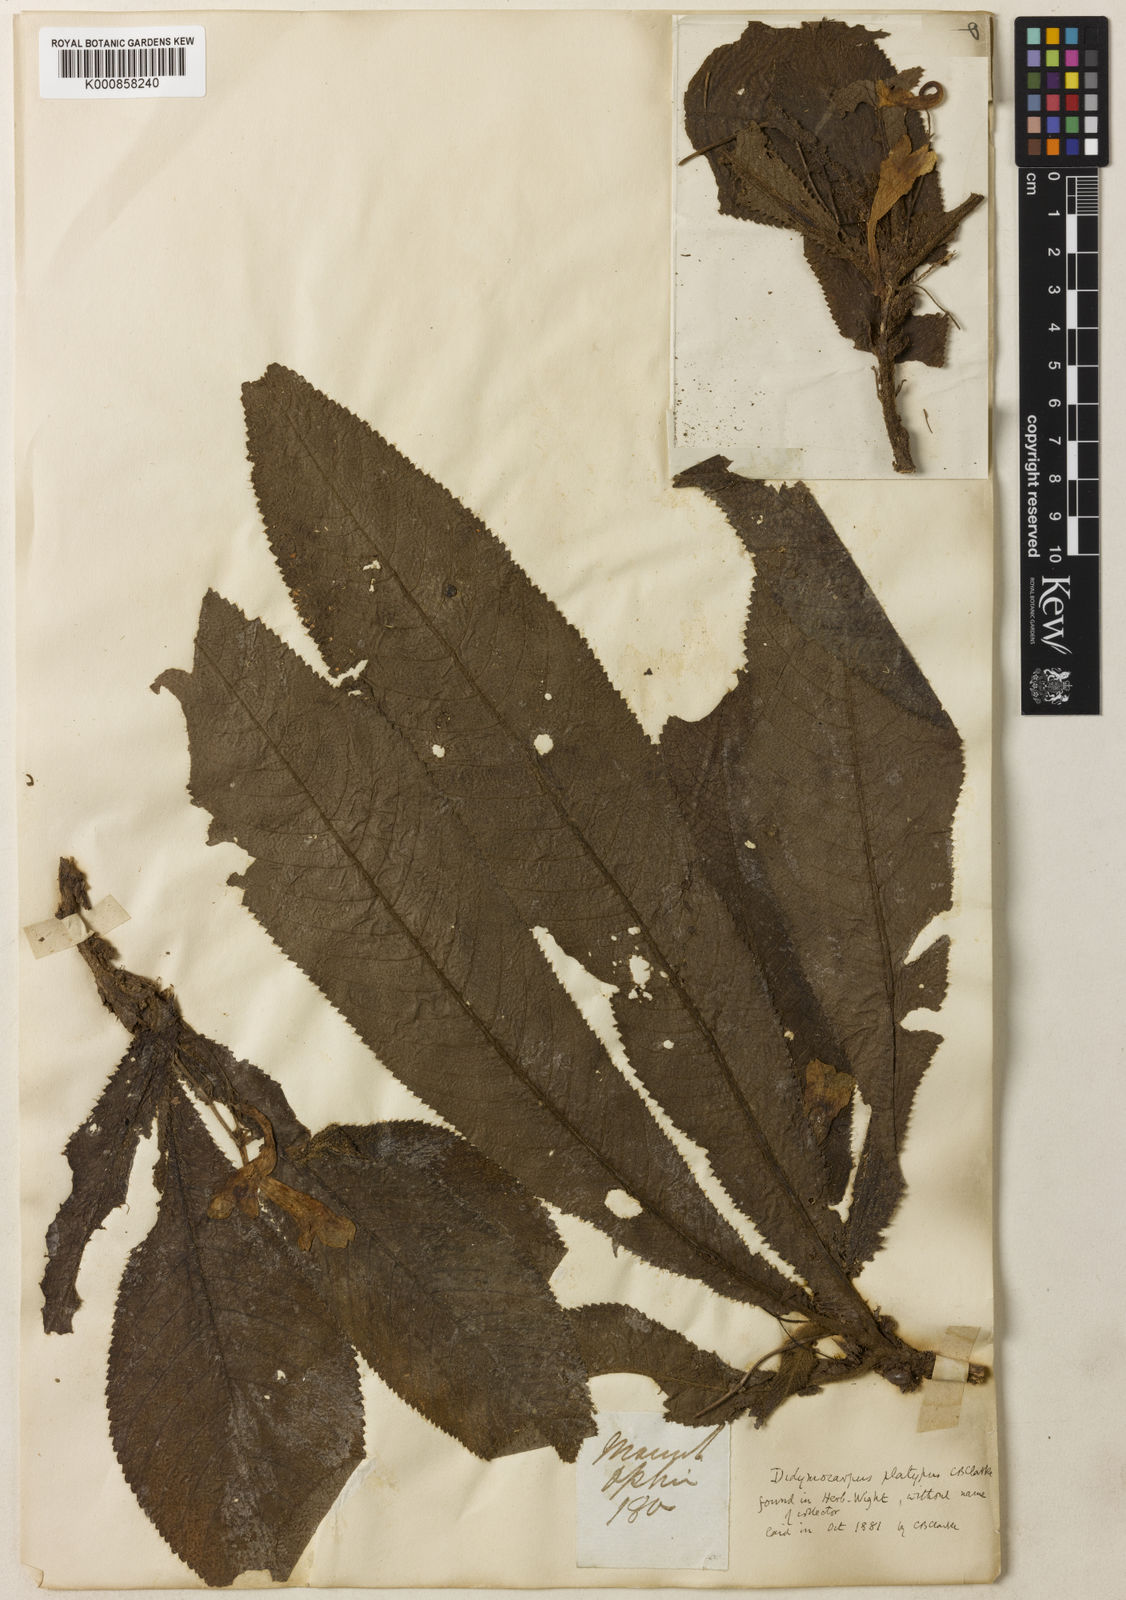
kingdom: Plantae
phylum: Tracheophyta
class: Magnoliopsida
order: Lamiales
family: Gesneriaceae
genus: Codonoboea
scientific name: Codonoboea platypus
